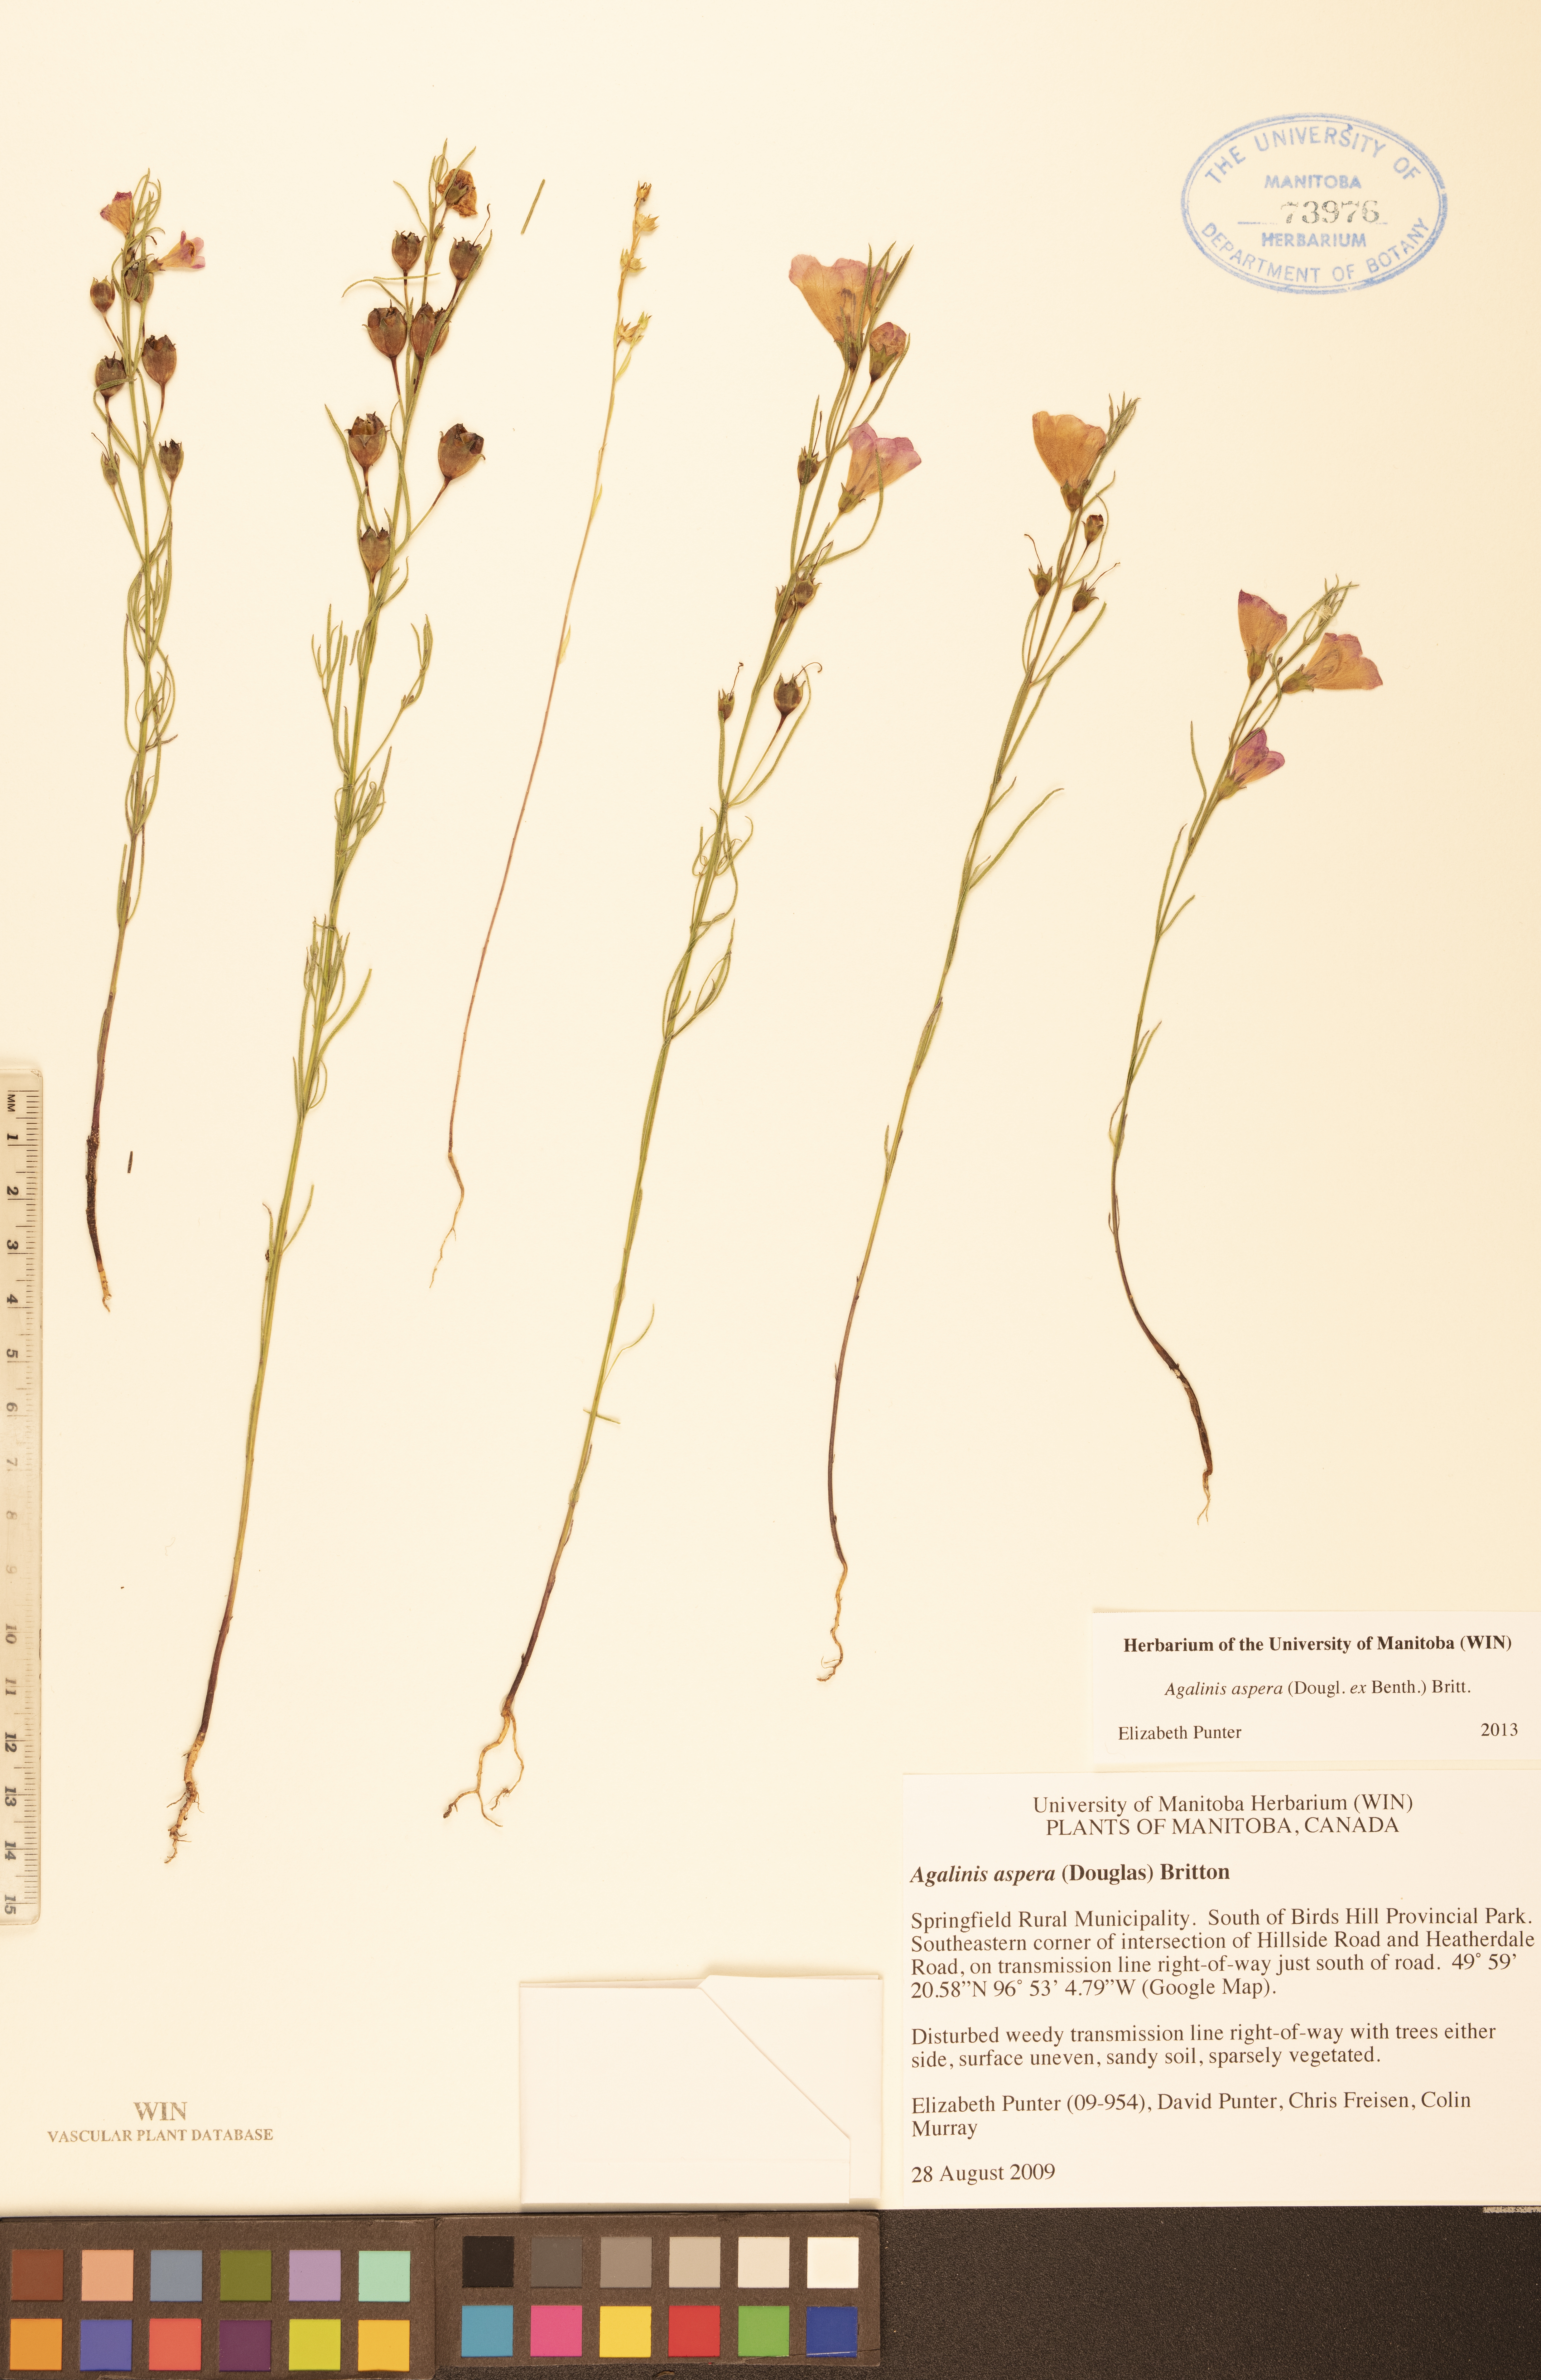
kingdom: Plantae
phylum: Tracheophyta
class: Magnoliopsida
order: Lamiales
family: Orobanchaceae
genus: Agalinis
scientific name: Agalinis aspera
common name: Rough agalinis
